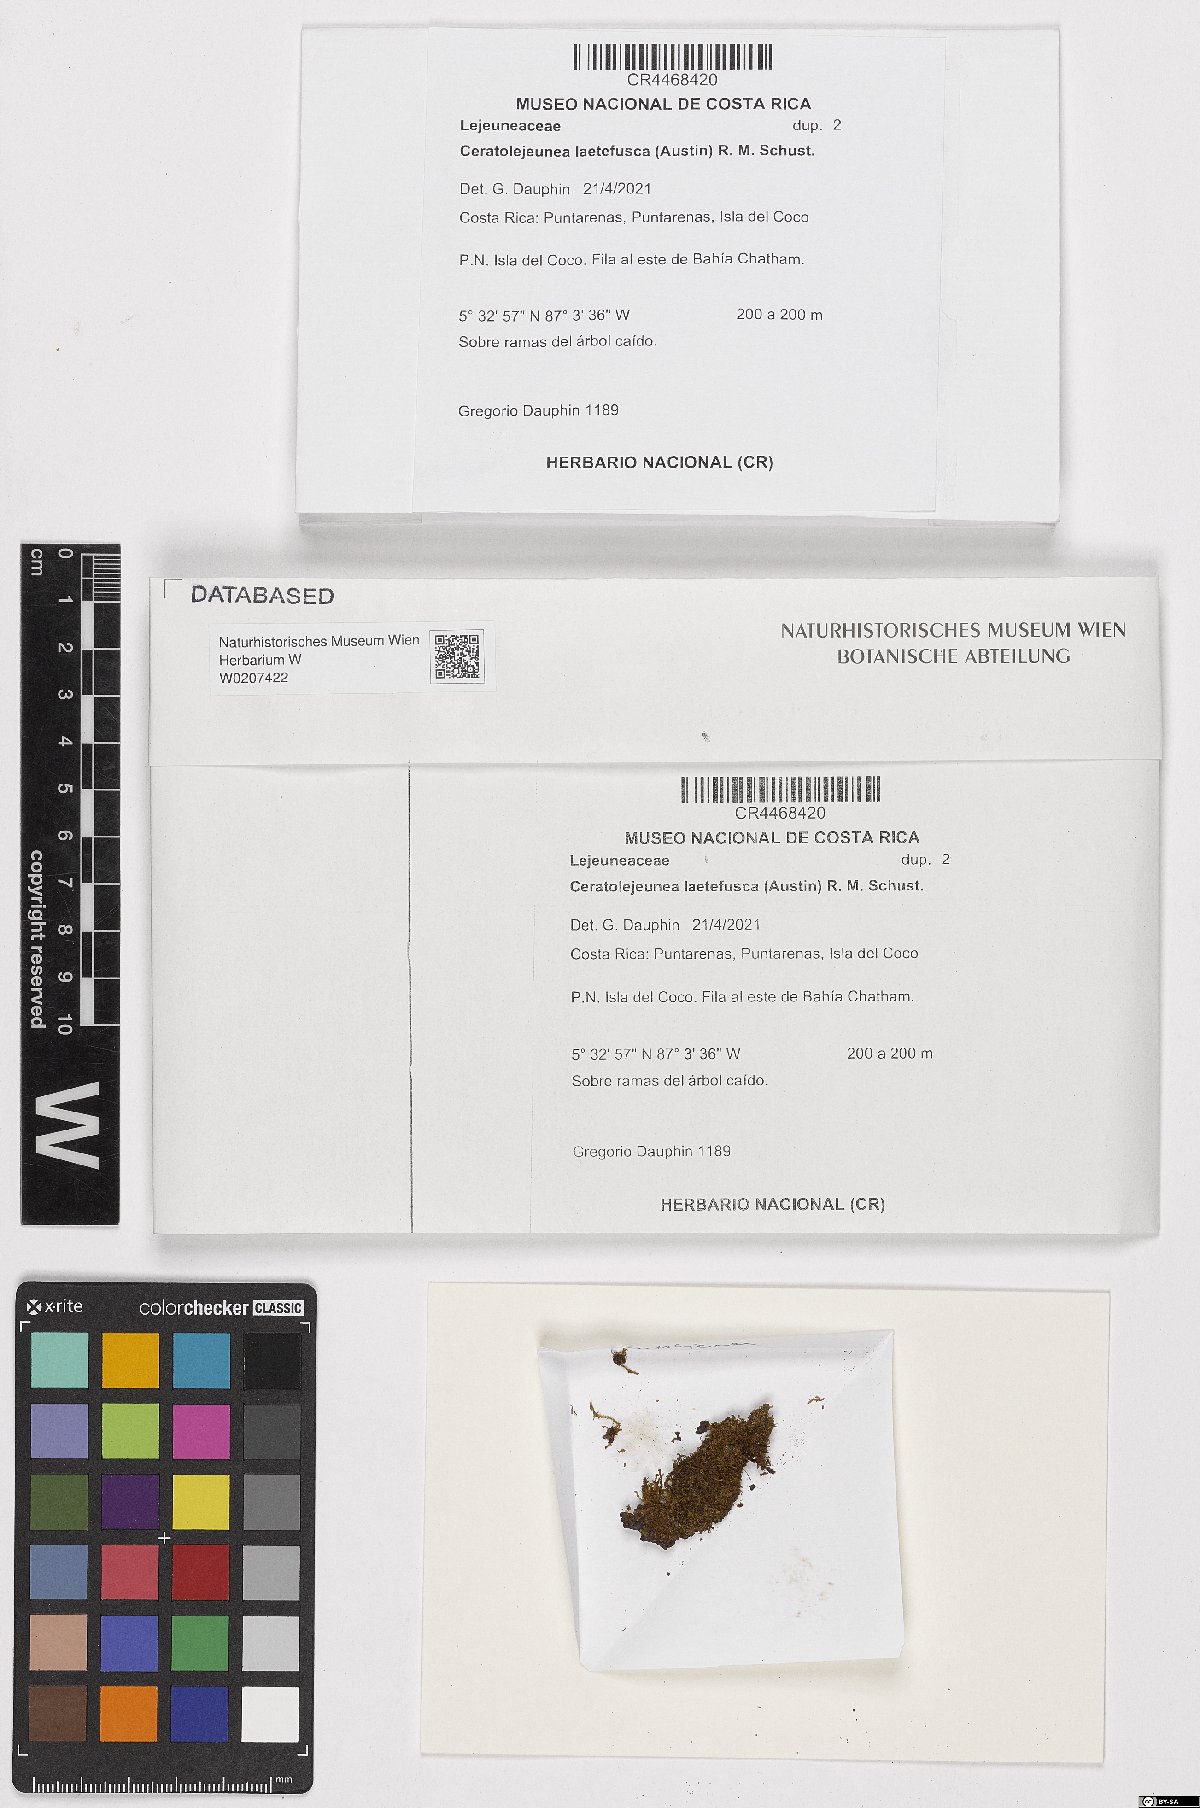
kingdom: Plantae
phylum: Marchantiophyta
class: Jungermanniopsida
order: Porellales
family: Lejeuneaceae
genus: Ceratolejeunea
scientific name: Ceratolejeunea laetefusca
